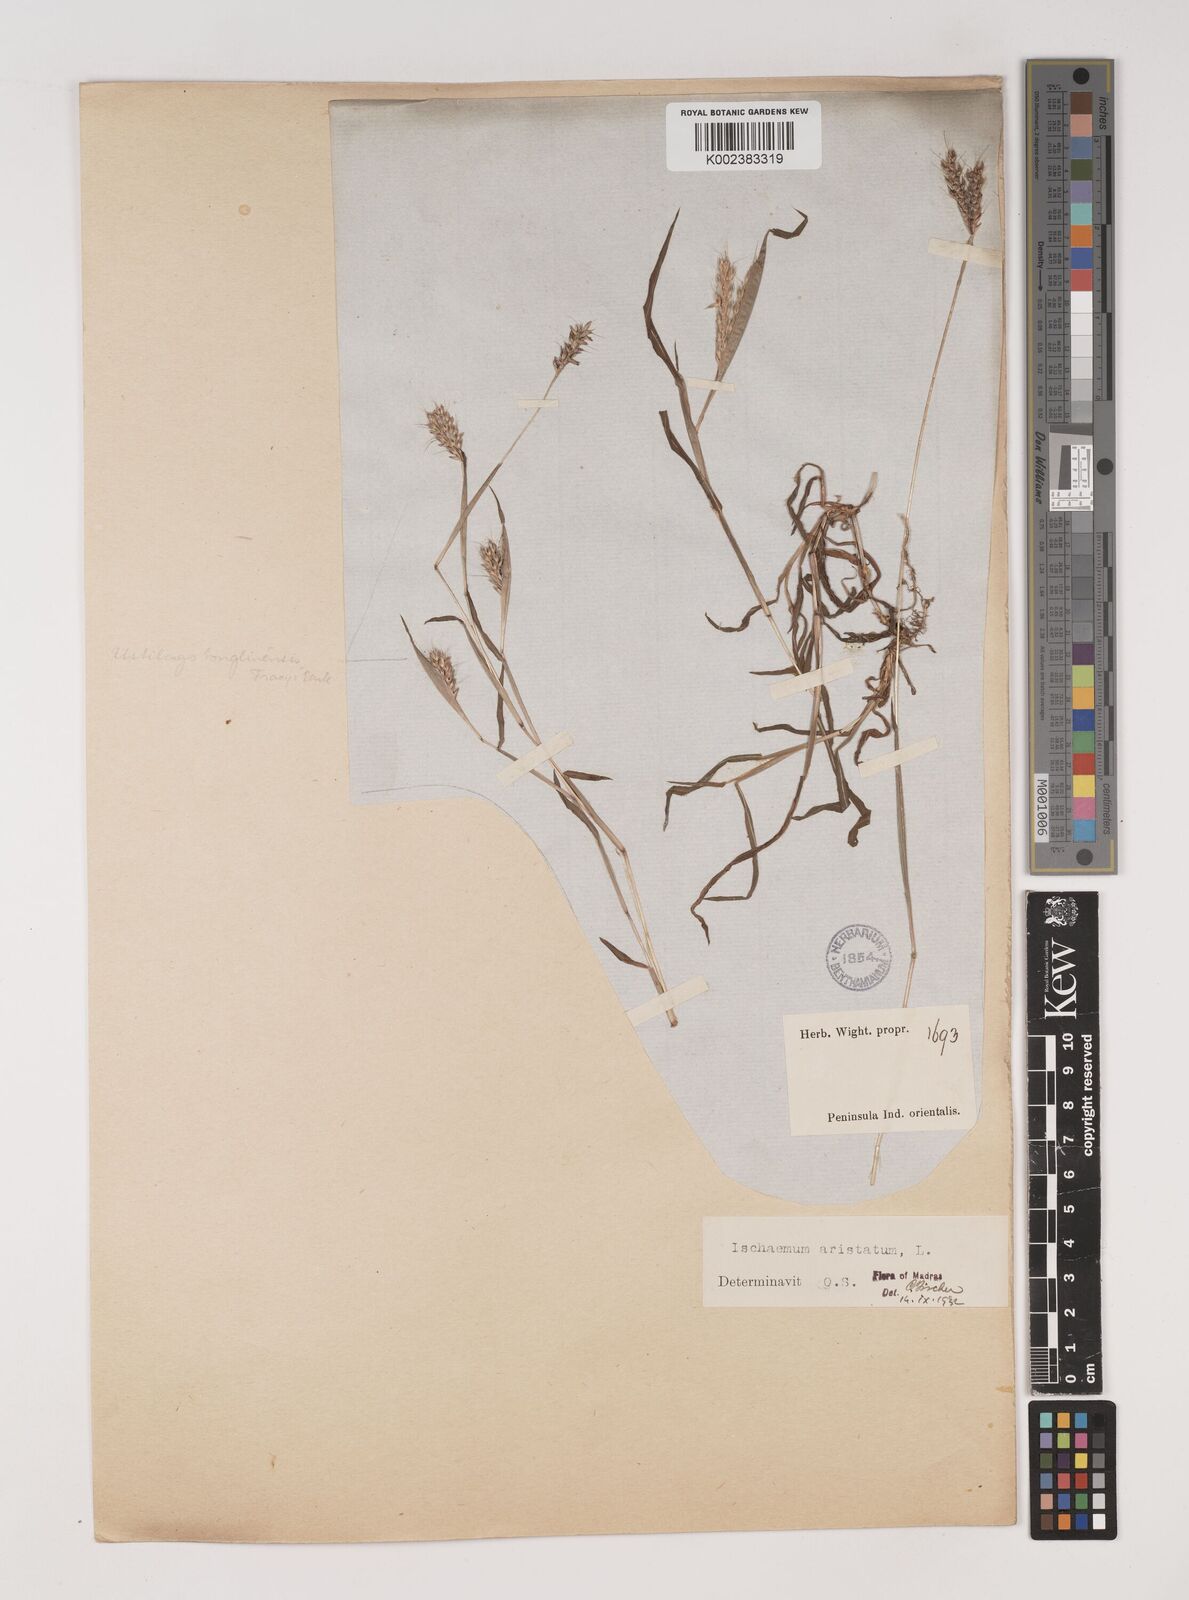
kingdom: Plantae
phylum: Tracheophyta
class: Liliopsida
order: Poales
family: Poaceae
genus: Polytrias
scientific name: Polytrias indica
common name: Indian murainagrass
